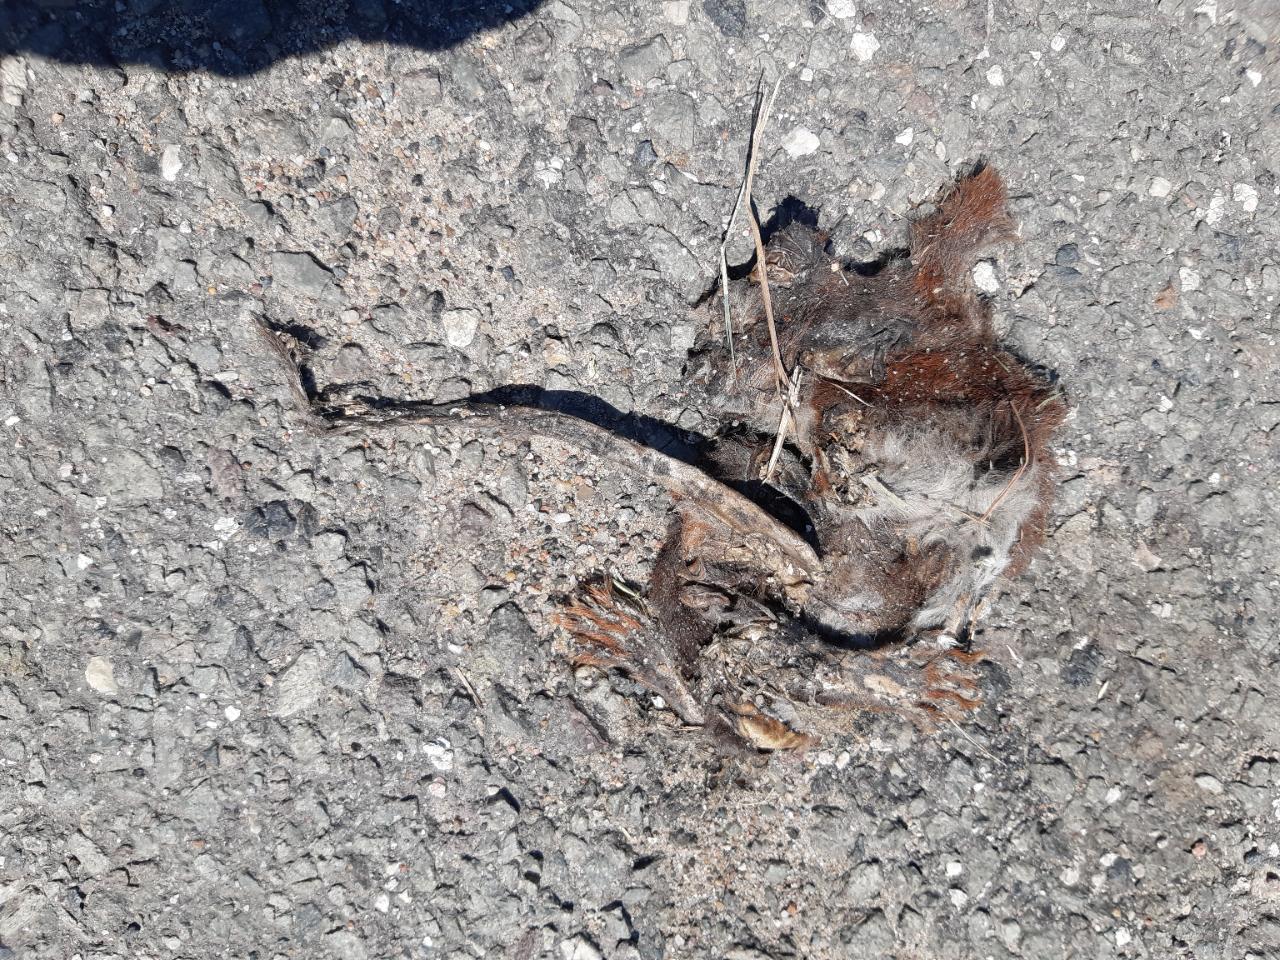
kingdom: Animalia
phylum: Chordata
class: Mammalia
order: Rodentia
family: Sciuridae
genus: Sciurus
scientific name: Sciurus vulgaris
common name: Eurasian red squirrel
